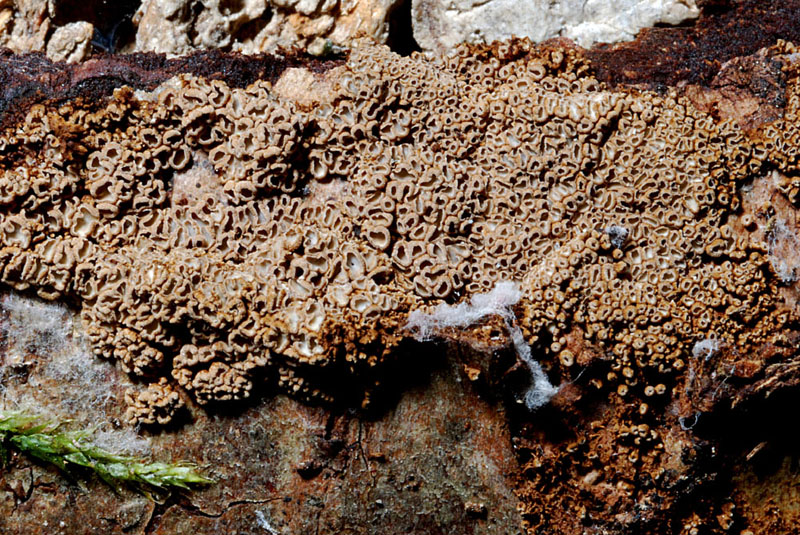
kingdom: Fungi
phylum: Basidiomycota
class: Agaricomycetes
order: Agaricales
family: Niaceae
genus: Merismodes
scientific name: Merismodes anomala
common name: almindelig læderskål
